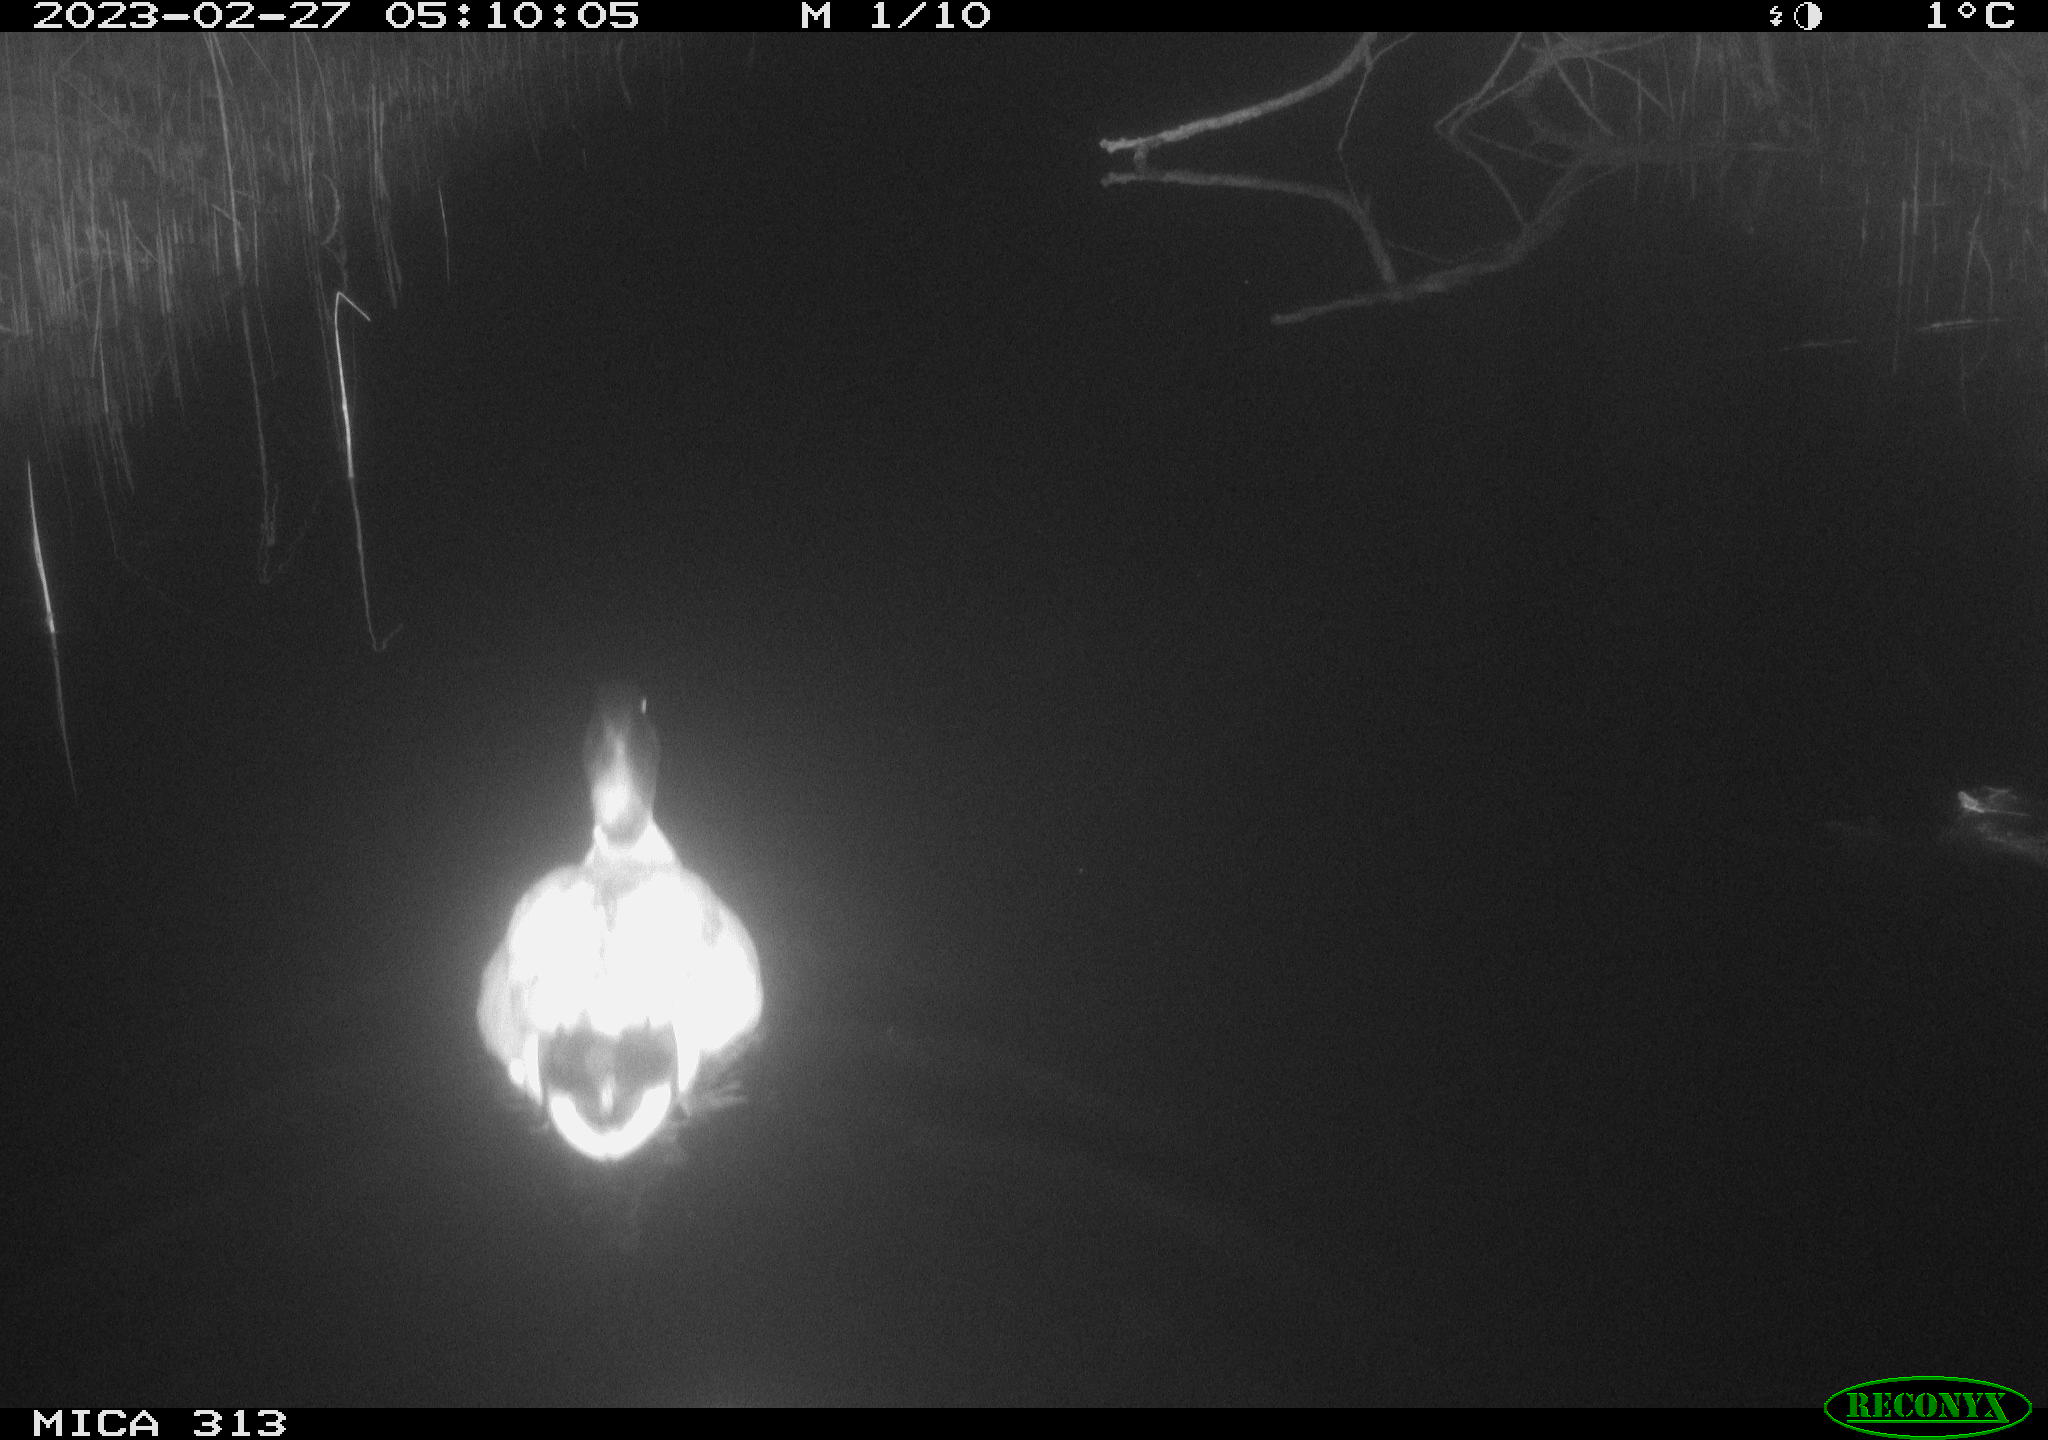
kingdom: Animalia
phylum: Chordata
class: Aves
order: Anseriformes
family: Anatidae
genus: Anas
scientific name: Anas
